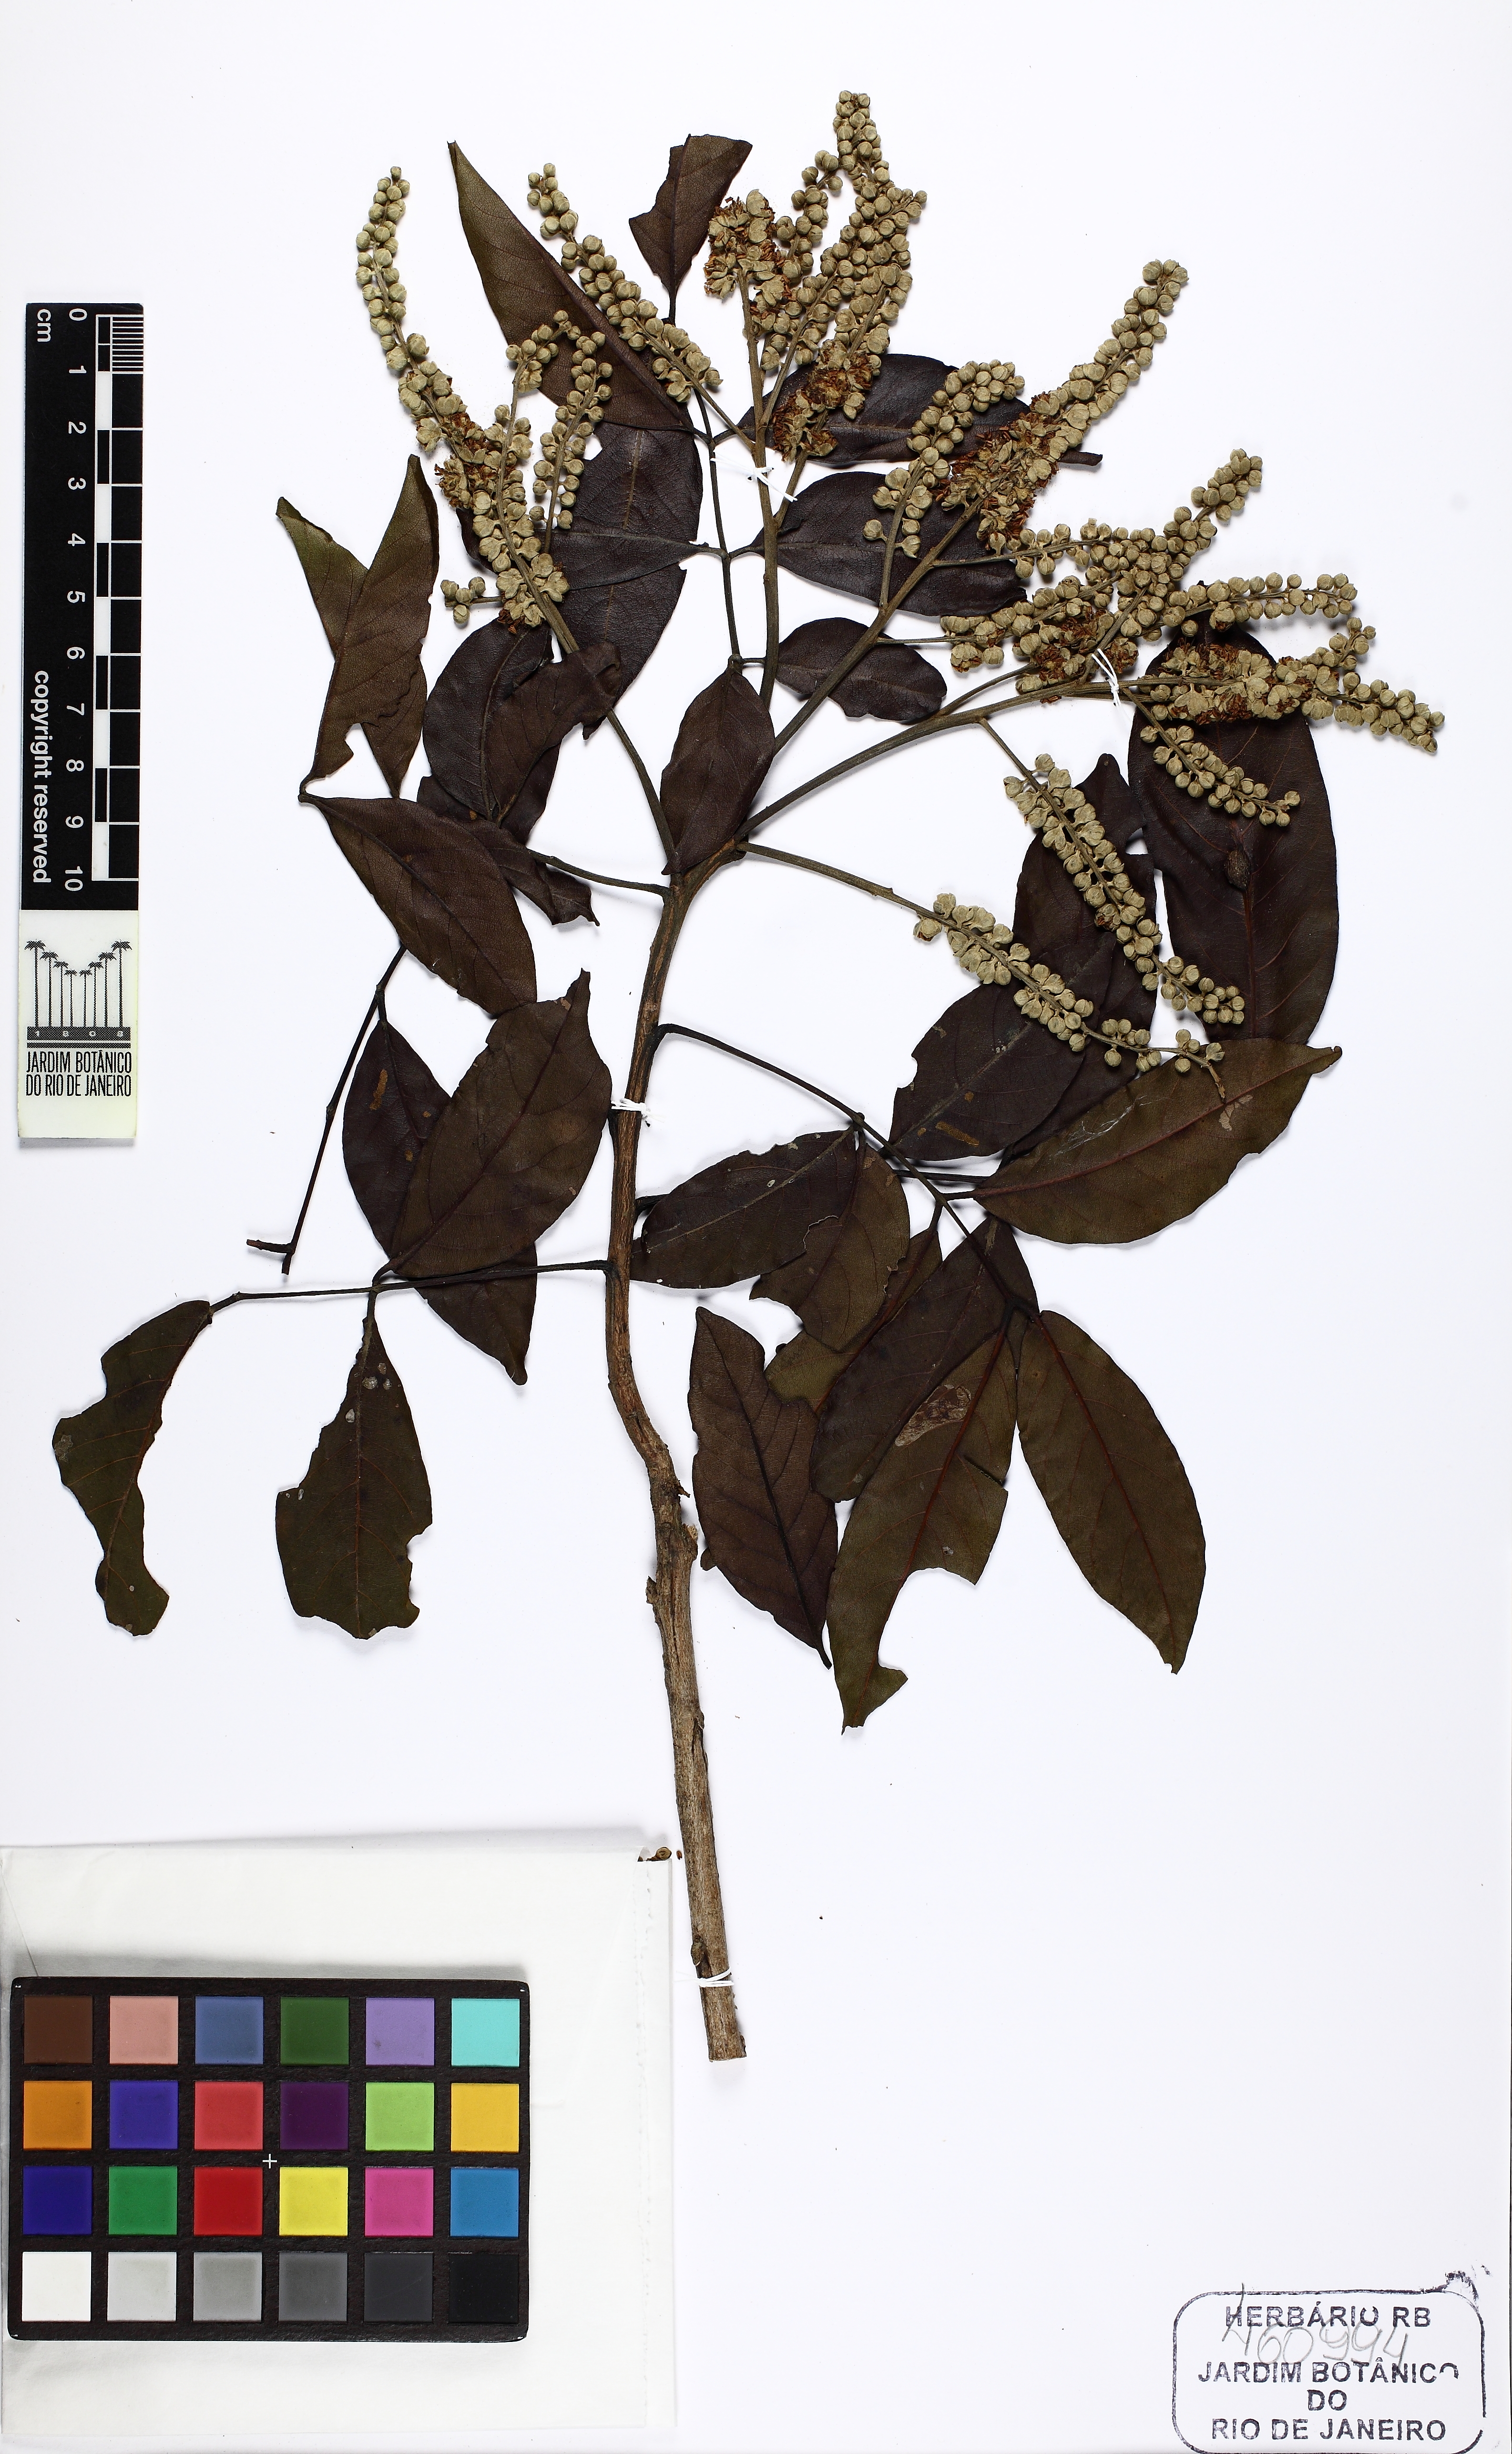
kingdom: Plantae
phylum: Tracheophyta
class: Magnoliopsida
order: Fabales
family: Fabaceae
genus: Tachigali
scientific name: Tachigali spathulipetala
